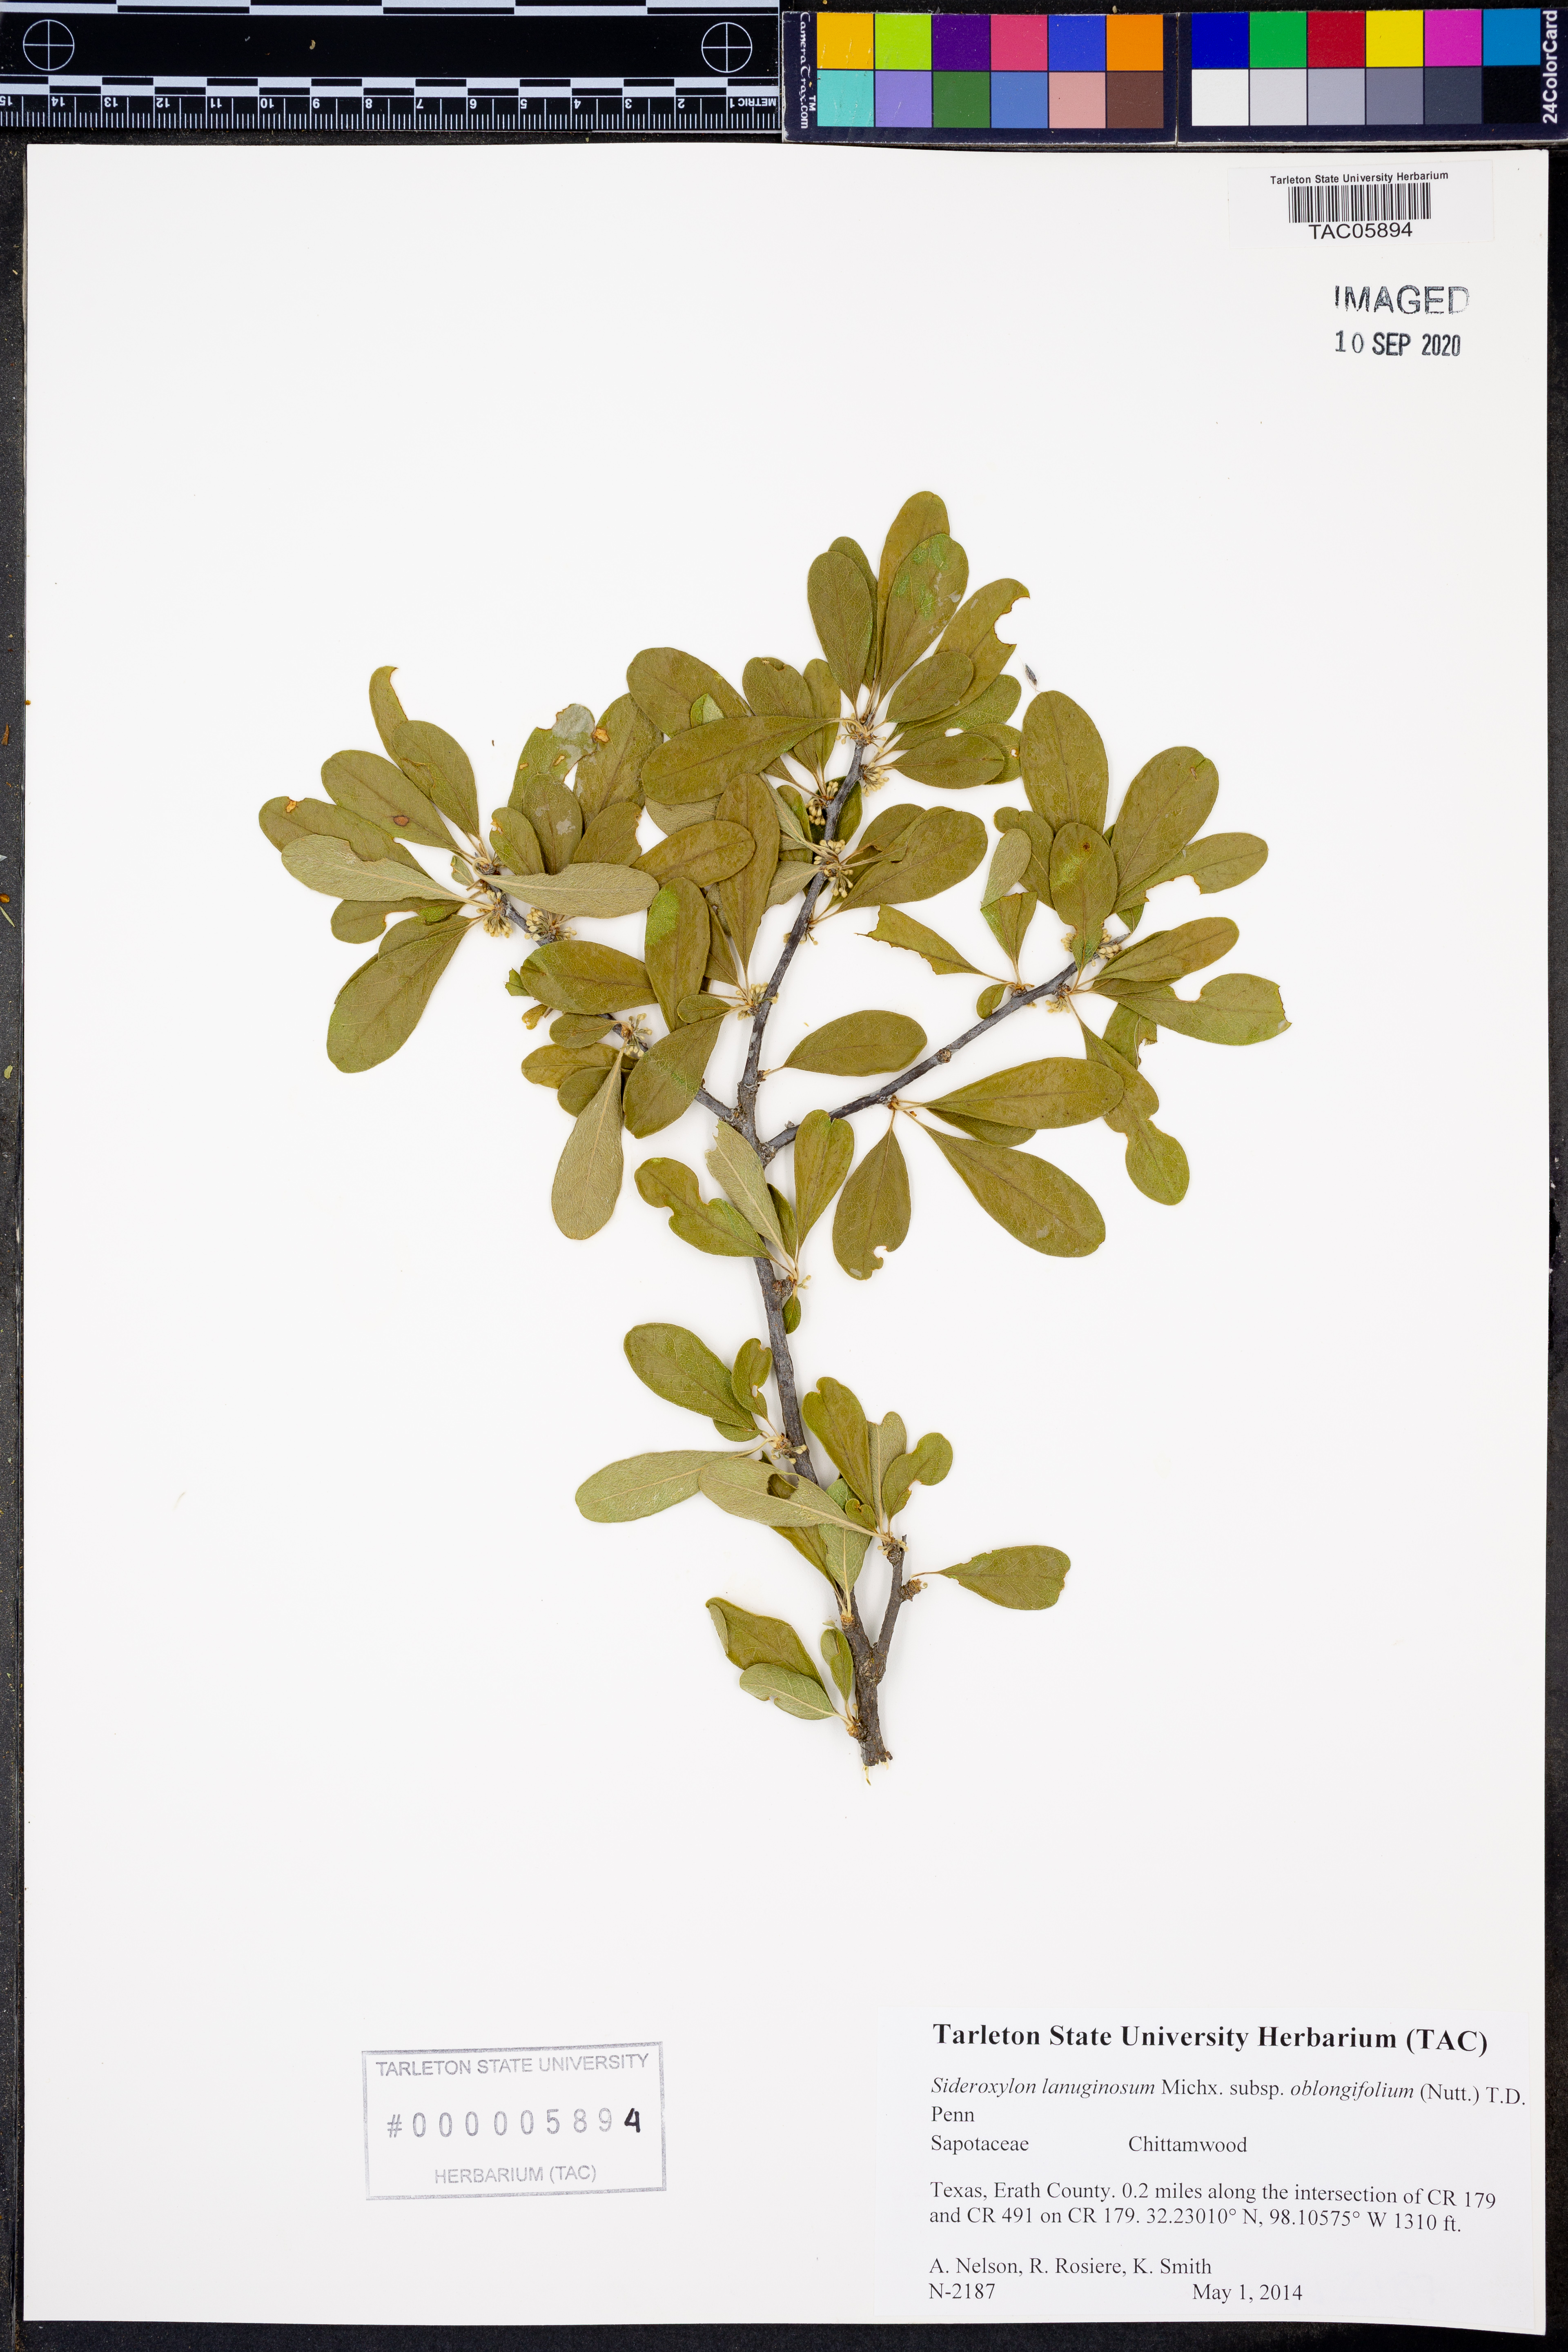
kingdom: Plantae
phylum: Tracheophyta
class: Magnoliopsida
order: Ericales
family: Sapotaceae
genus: Sideroxylon
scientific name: Sideroxylon lanuginosum
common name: Chittamwood
